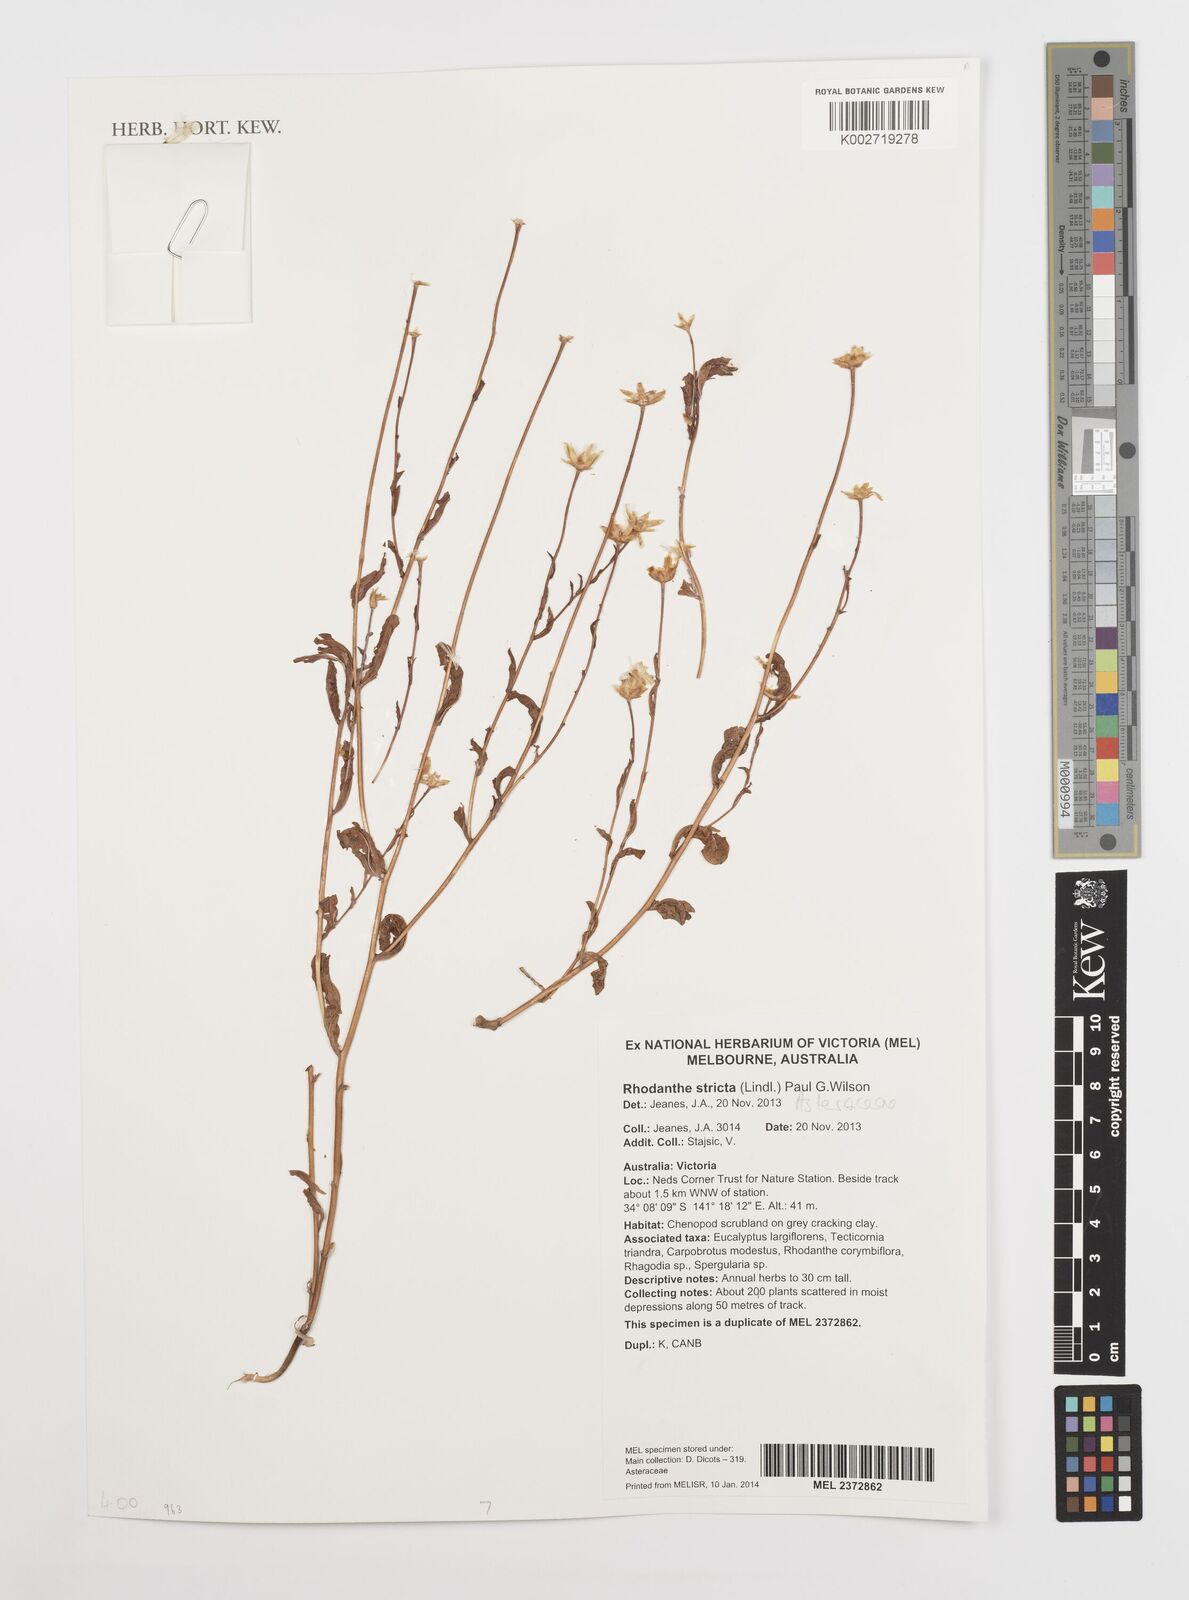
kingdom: Plantae
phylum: Tracheophyta
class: Magnoliopsida
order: Asterales
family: Asteraceae
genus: Rhodanthe
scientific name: Rhodanthe stricta
